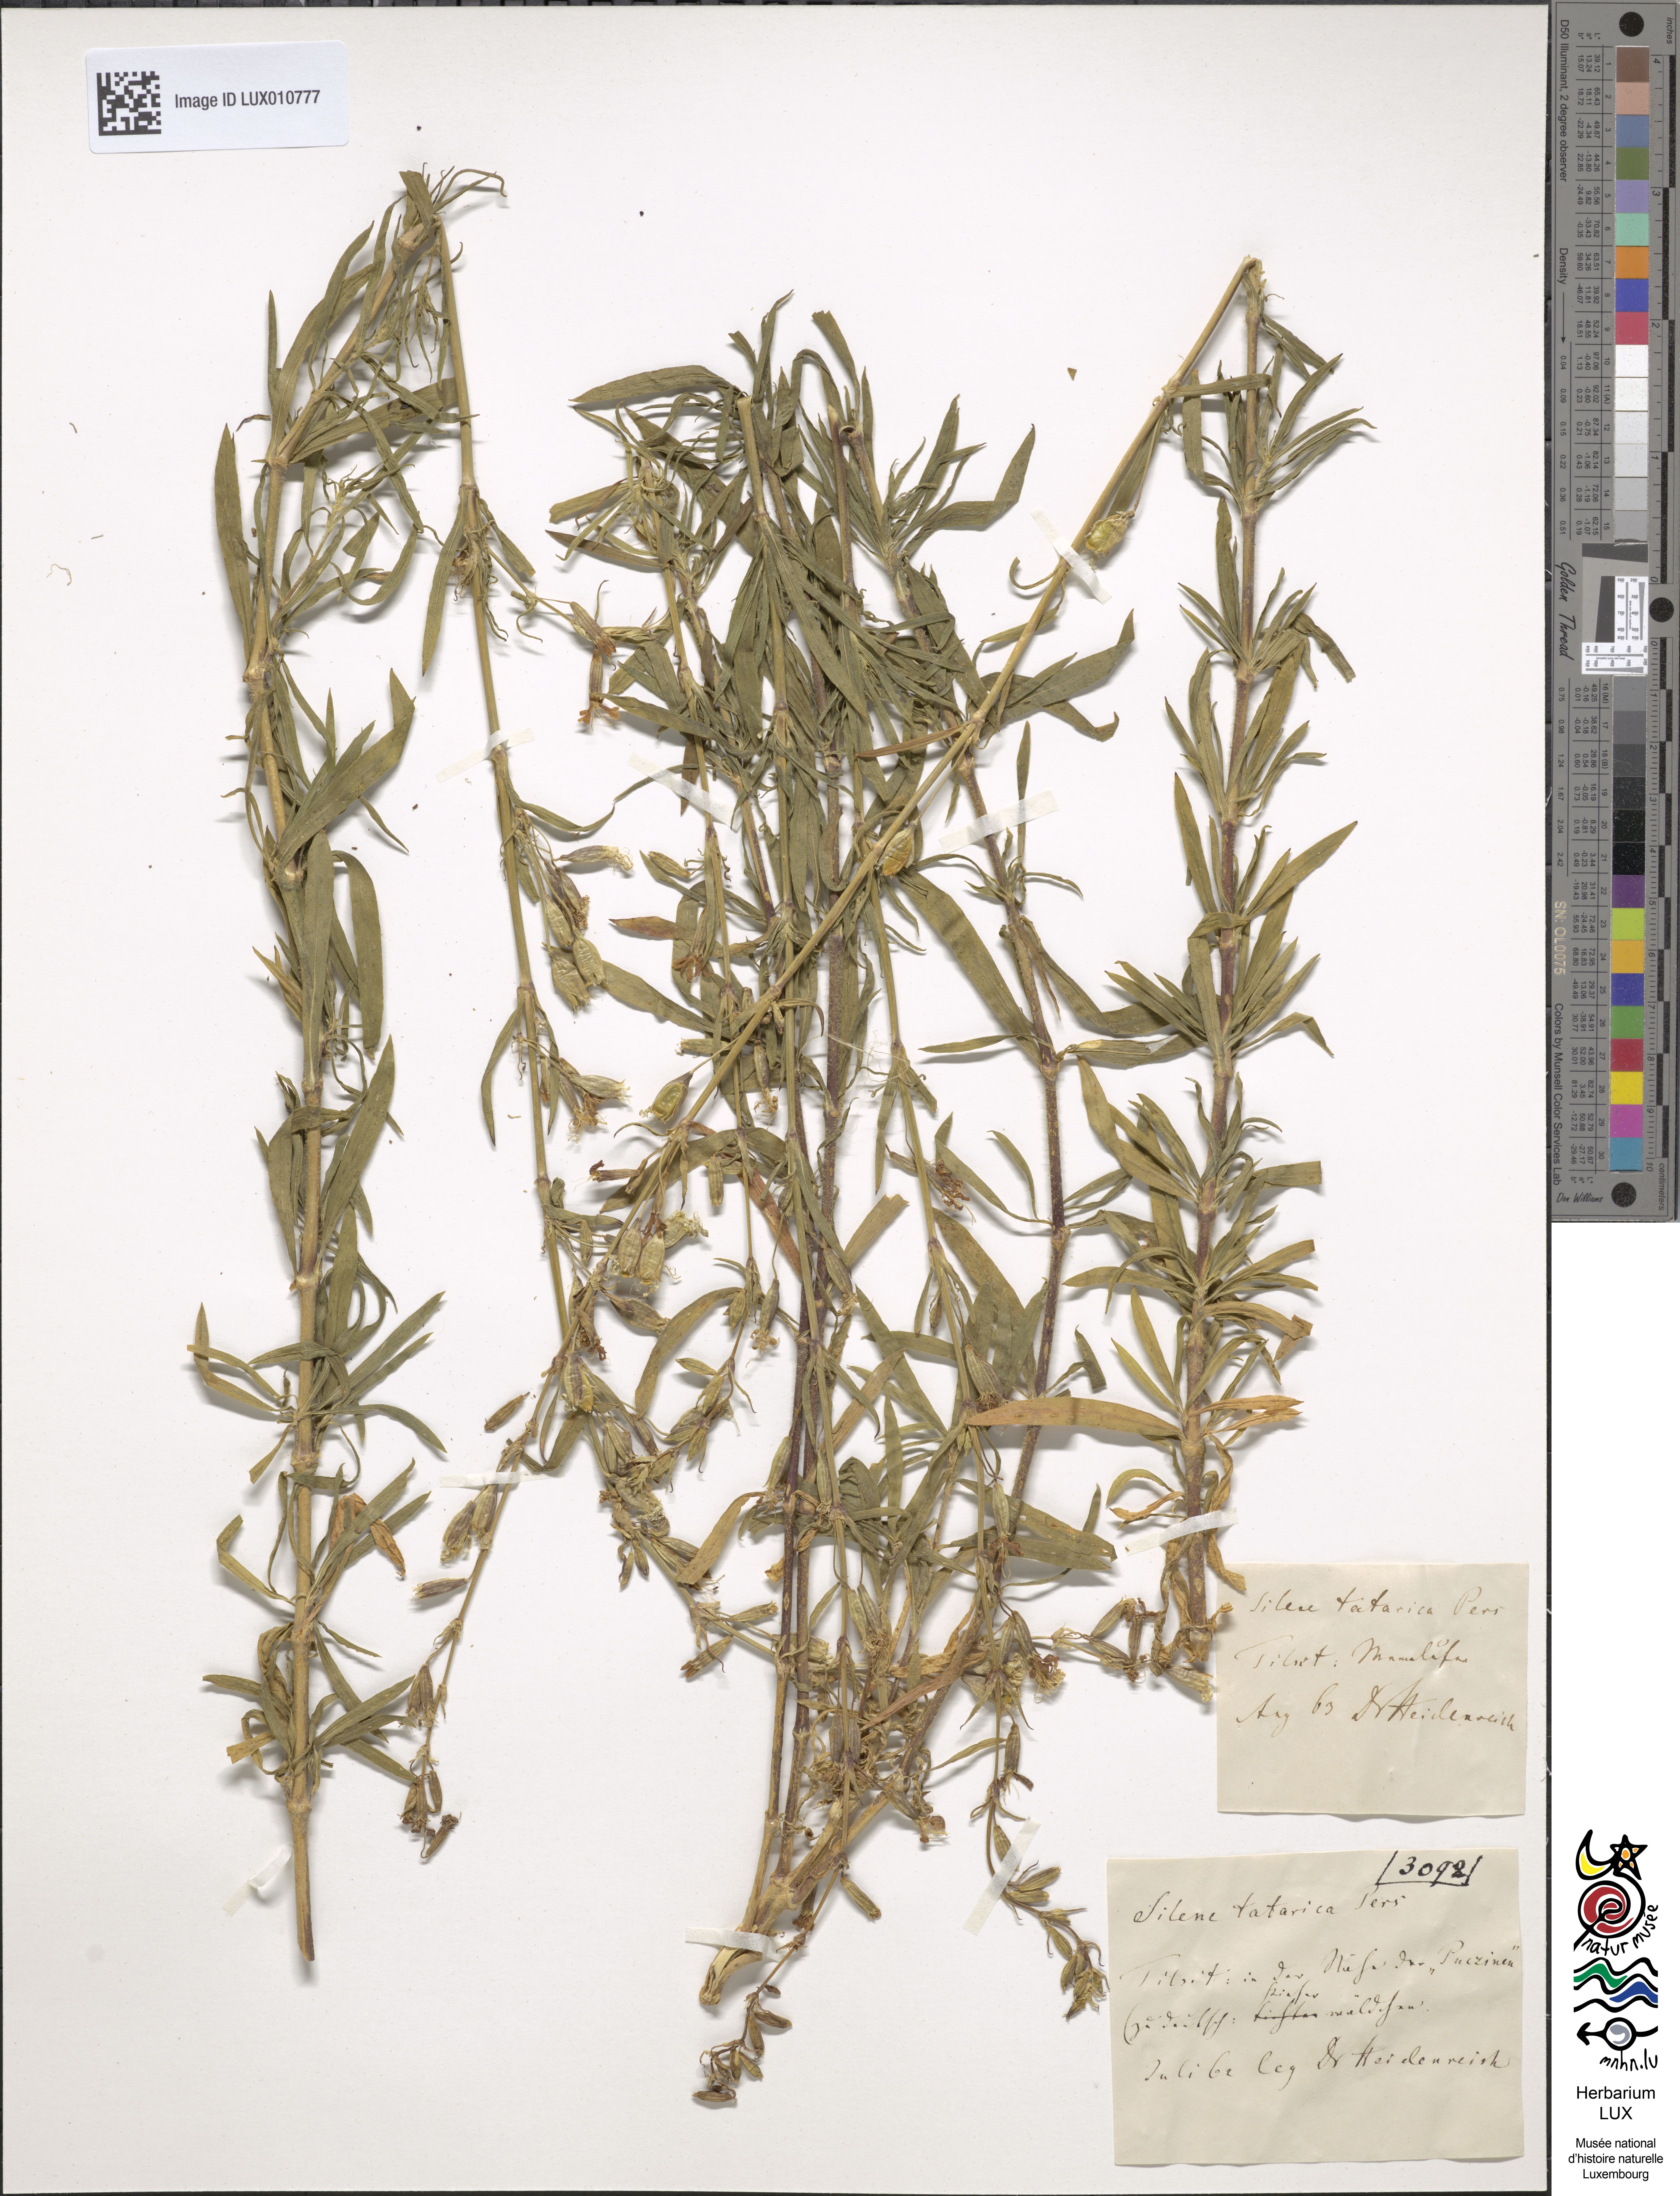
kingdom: Plantae
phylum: Tracheophyta
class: Magnoliopsida
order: Caryophyllales
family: Caryophyllaceae
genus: Silene
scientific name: Silene tatarica
